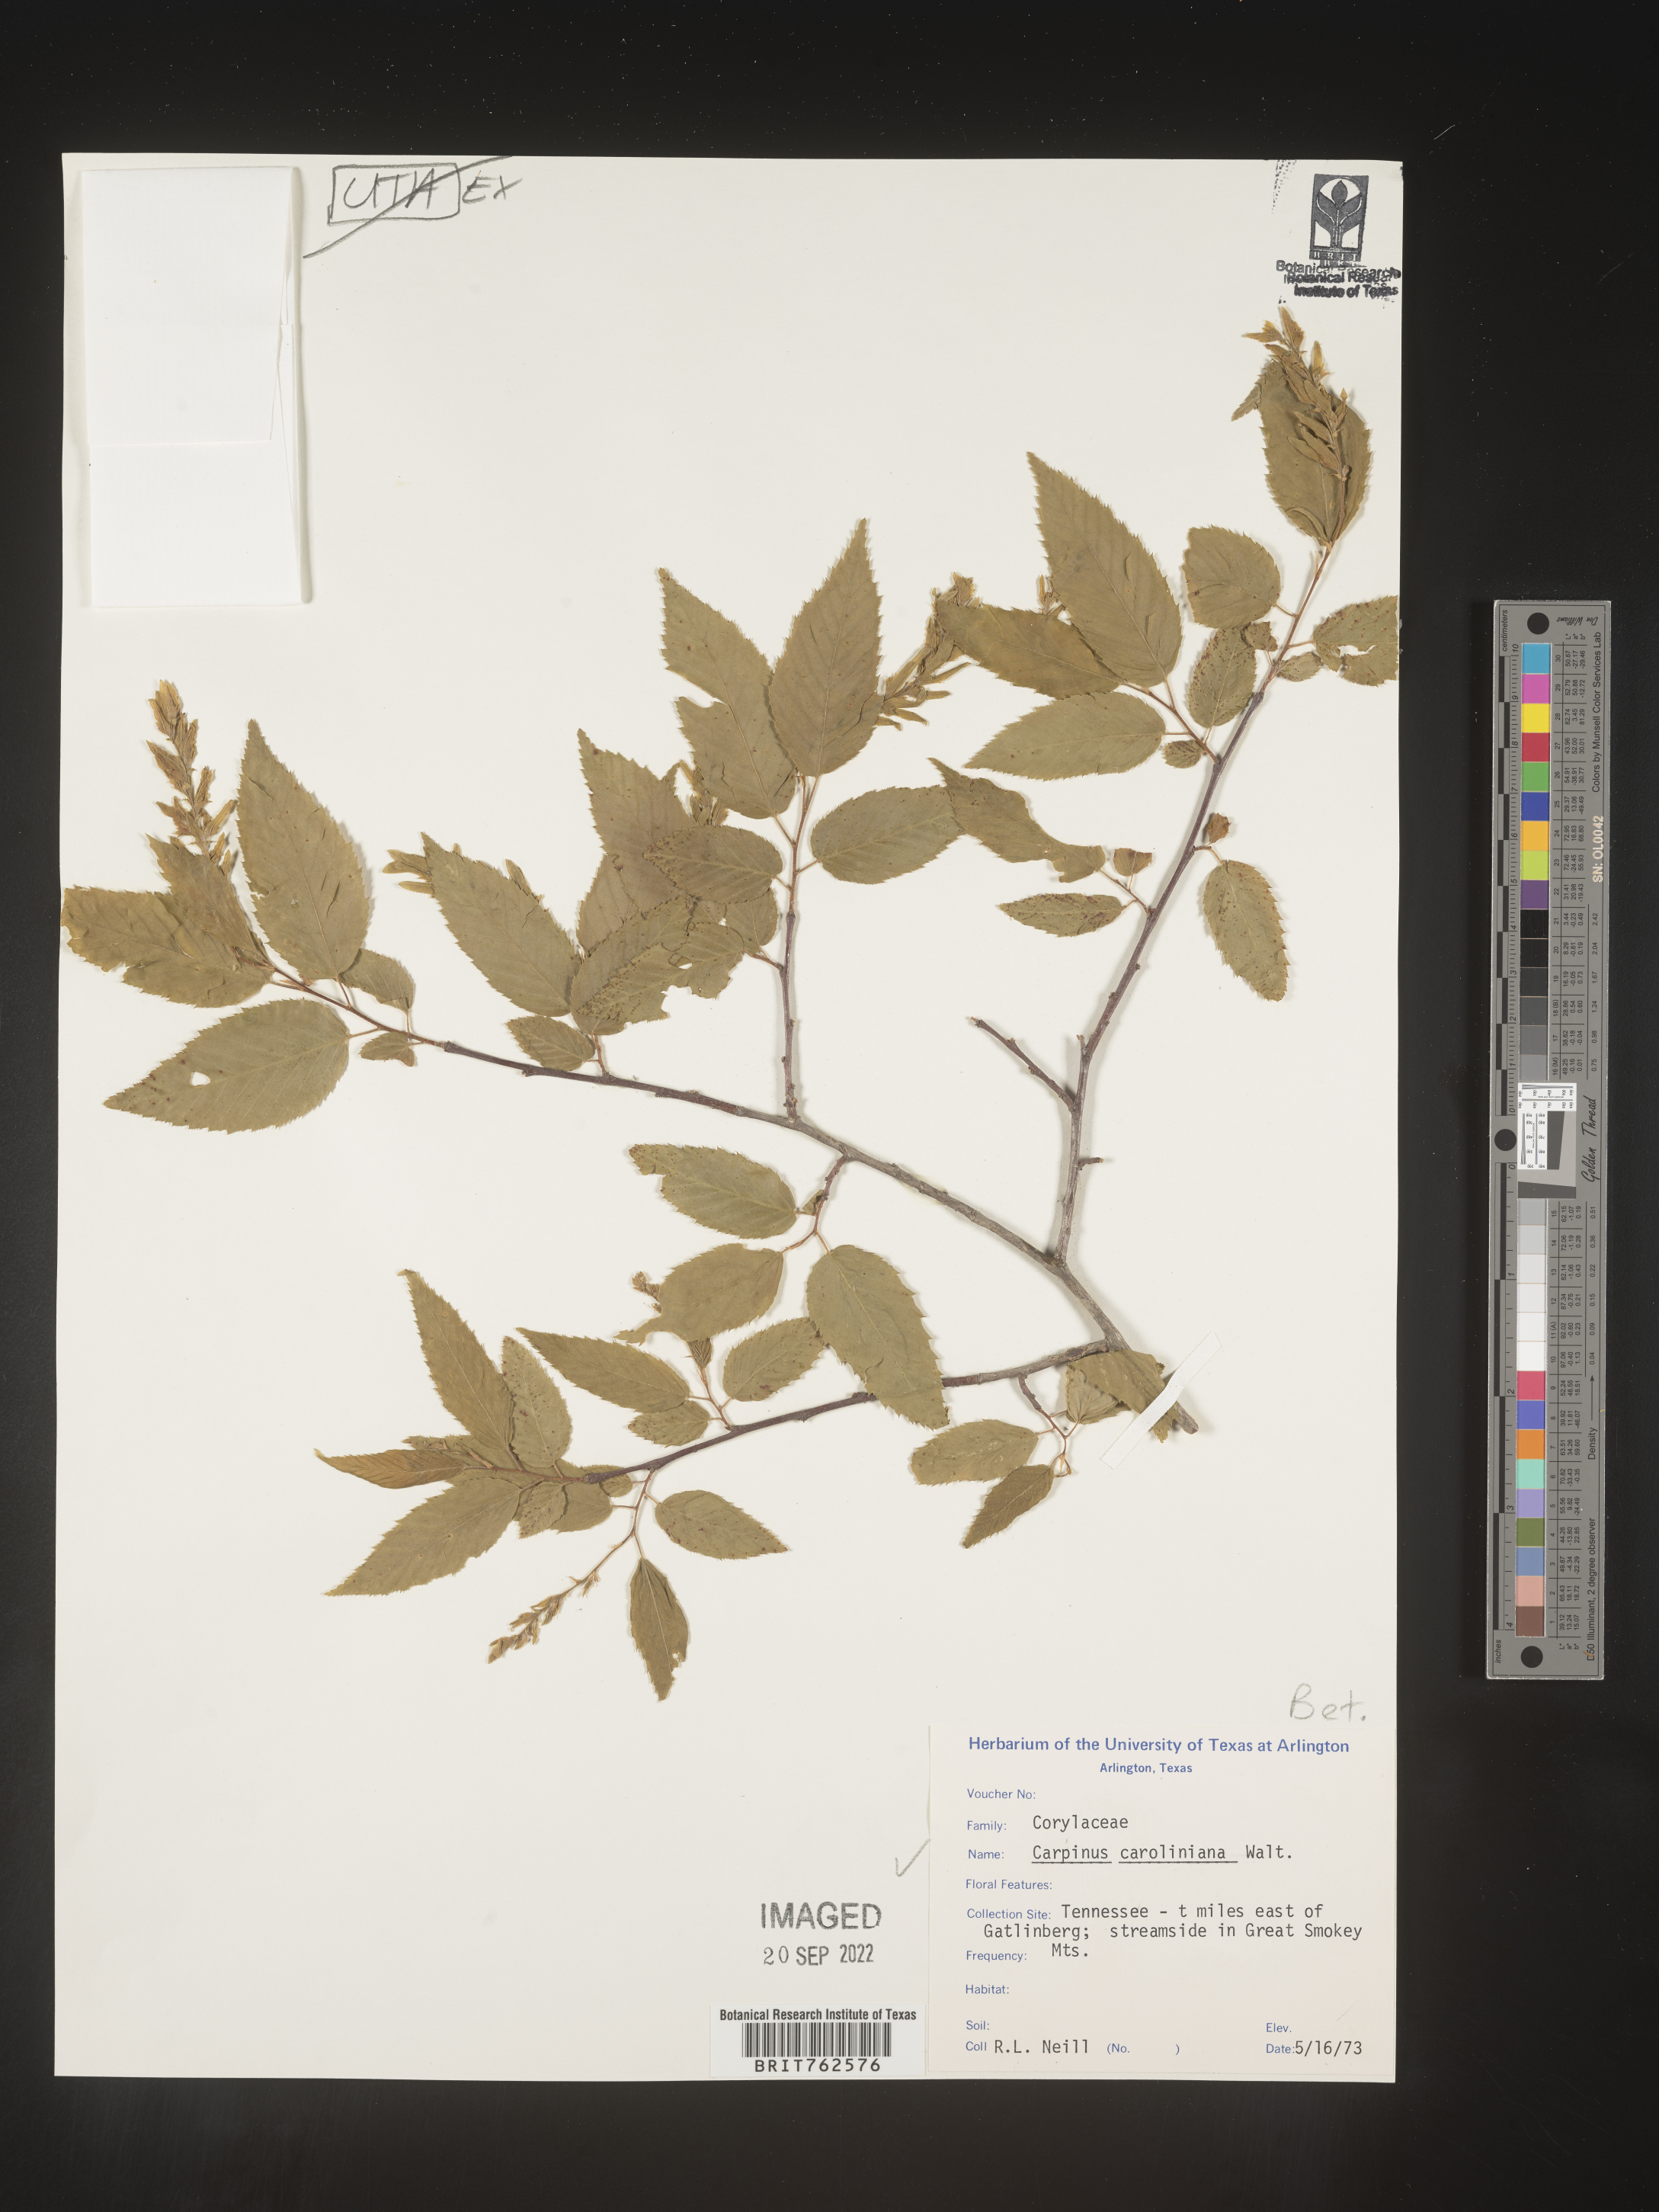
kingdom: Plantae
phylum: Tracheophyta
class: Magnoliopsida
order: Fagales
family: Betulaceae
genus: Carpinus
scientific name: Carpinus caroliniana
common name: American hornbeam
